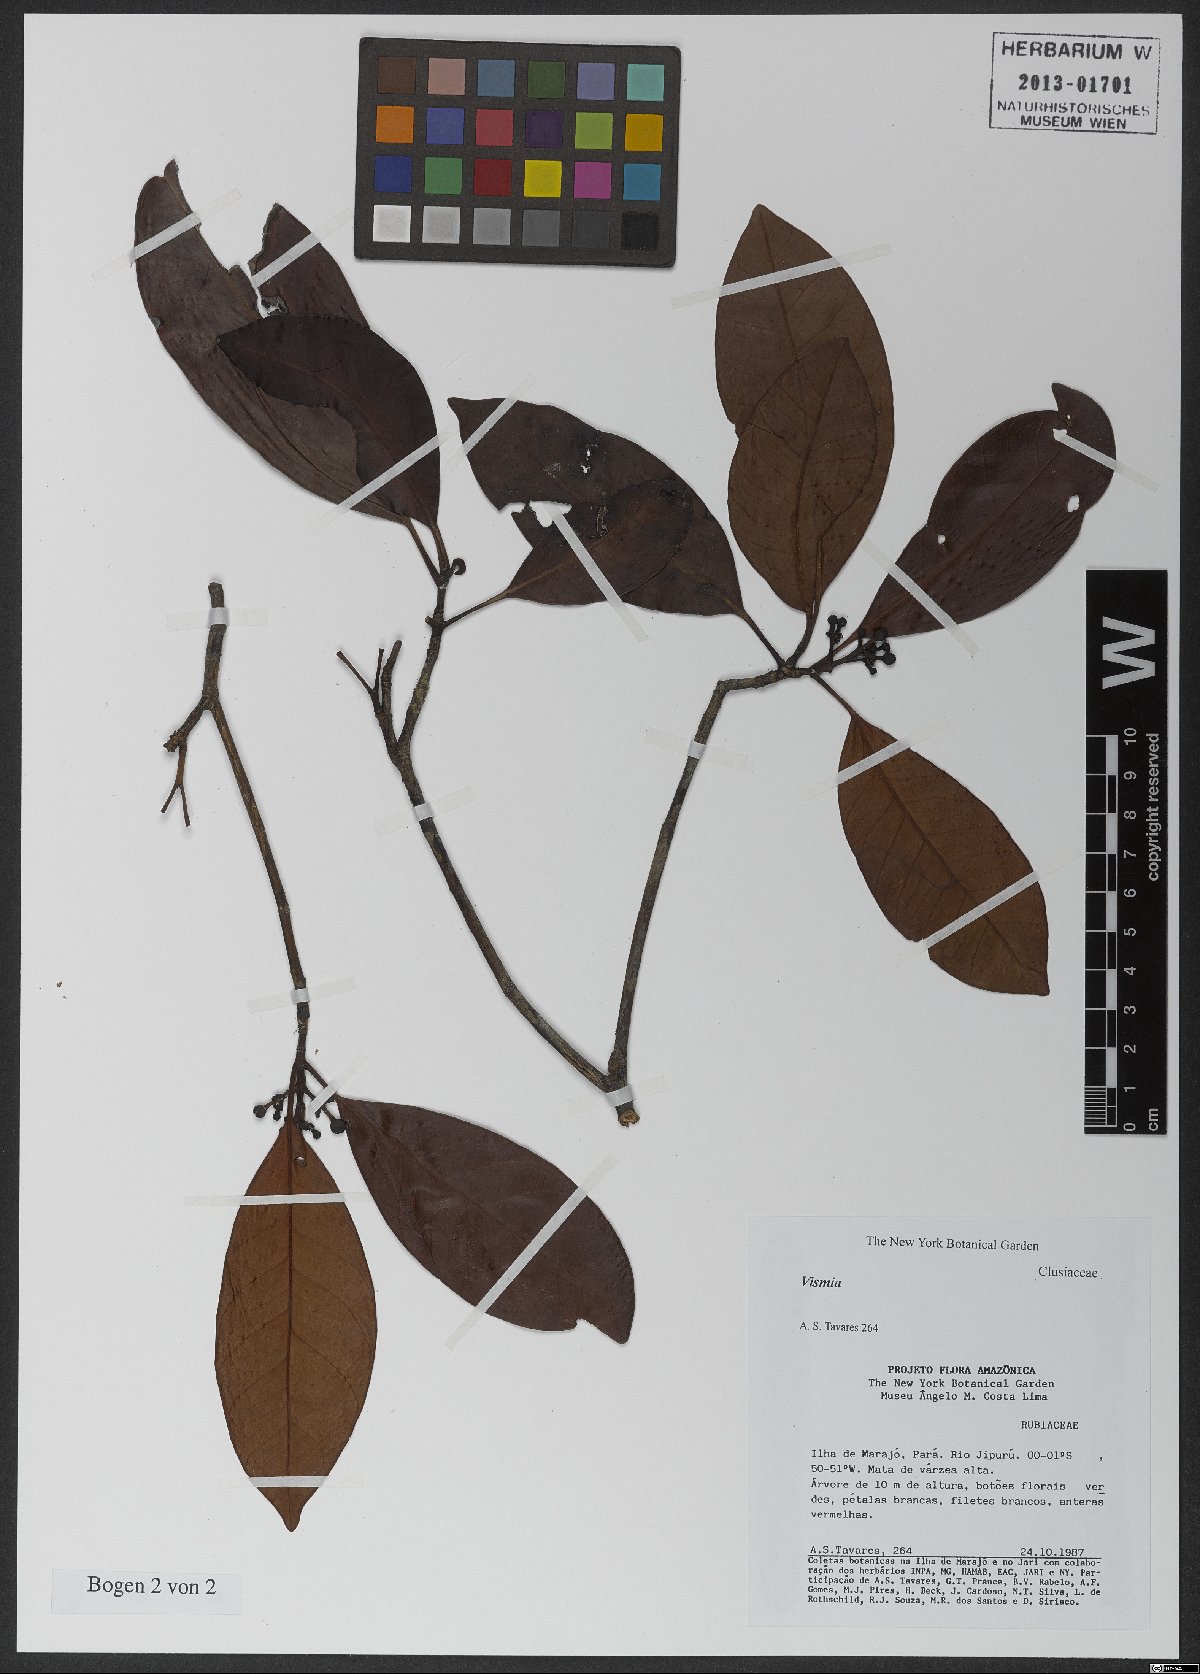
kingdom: Plantae
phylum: Tracheophyta
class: Magnoliopsida
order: Malpighiales
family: Clusiaceae
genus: Tovomita
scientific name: Tovomita brevistaminea
